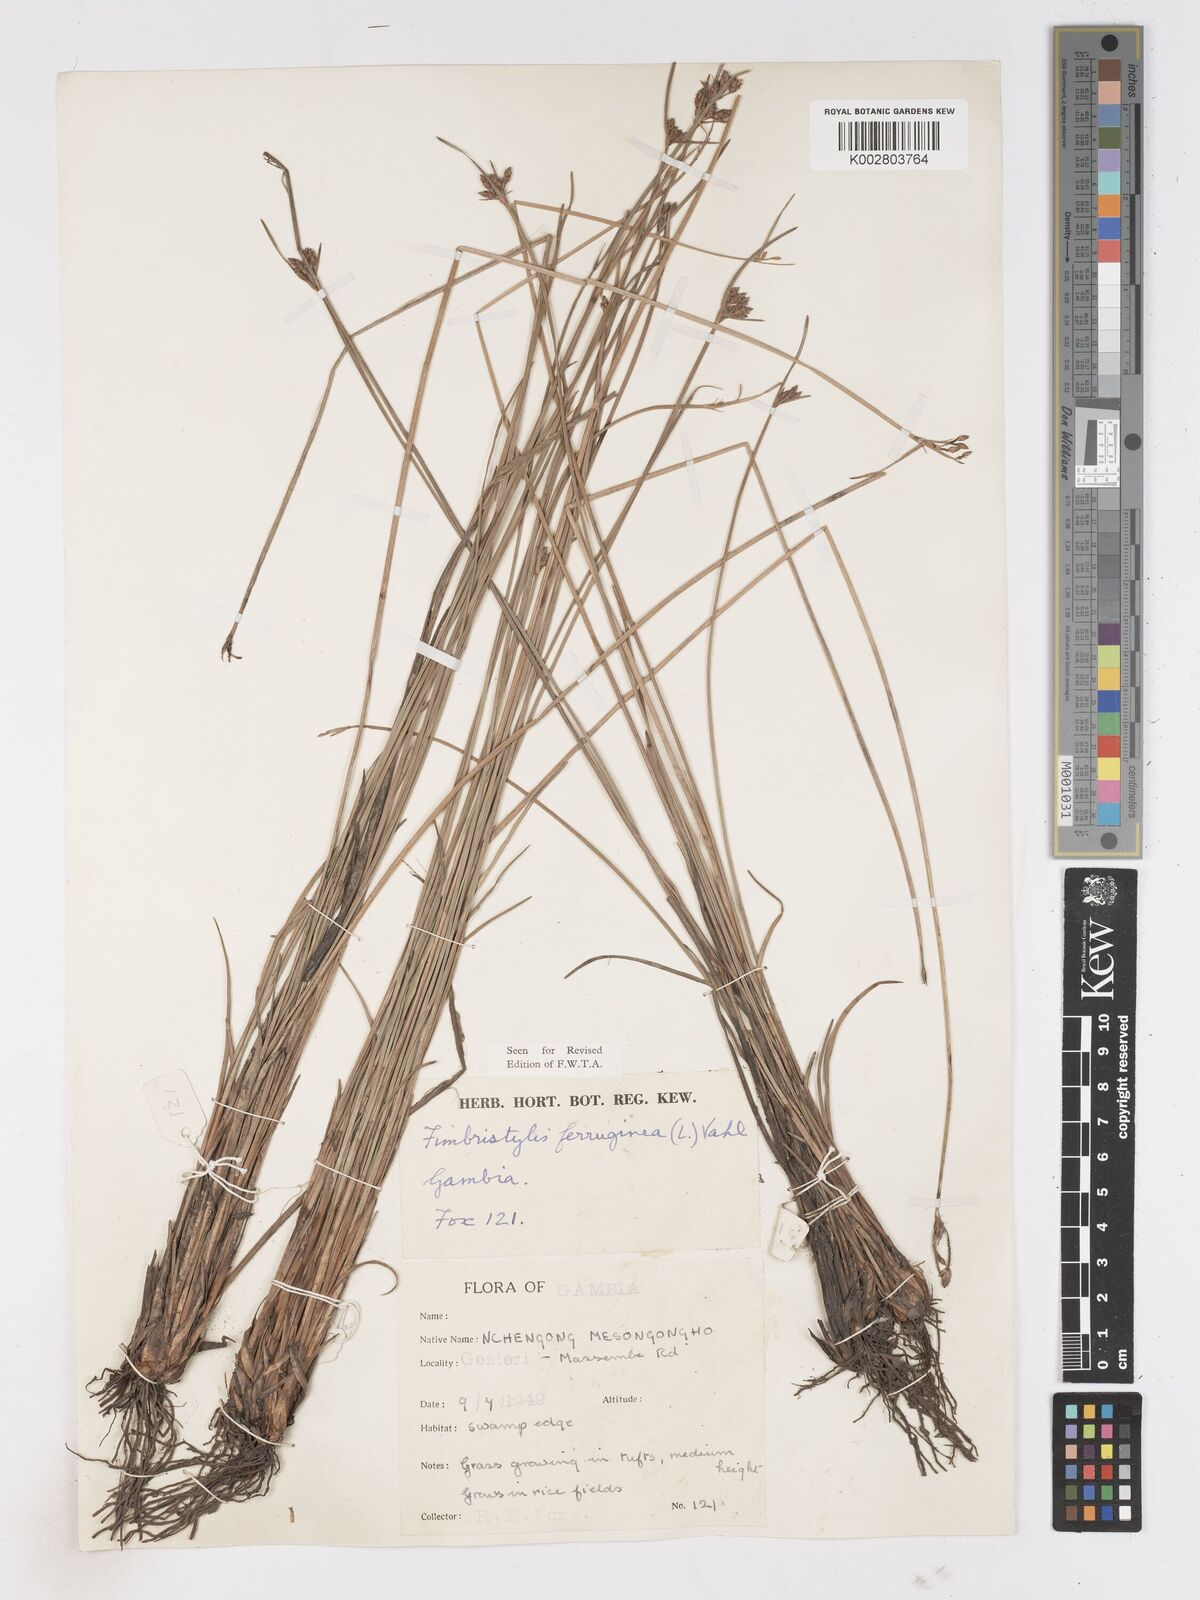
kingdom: Plantae
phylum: Tracheophyta
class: Liliopsida
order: Poales
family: Cyperaceae
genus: Fimbristylis
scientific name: Fimbristylis ferruginea
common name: West indian fimbry
